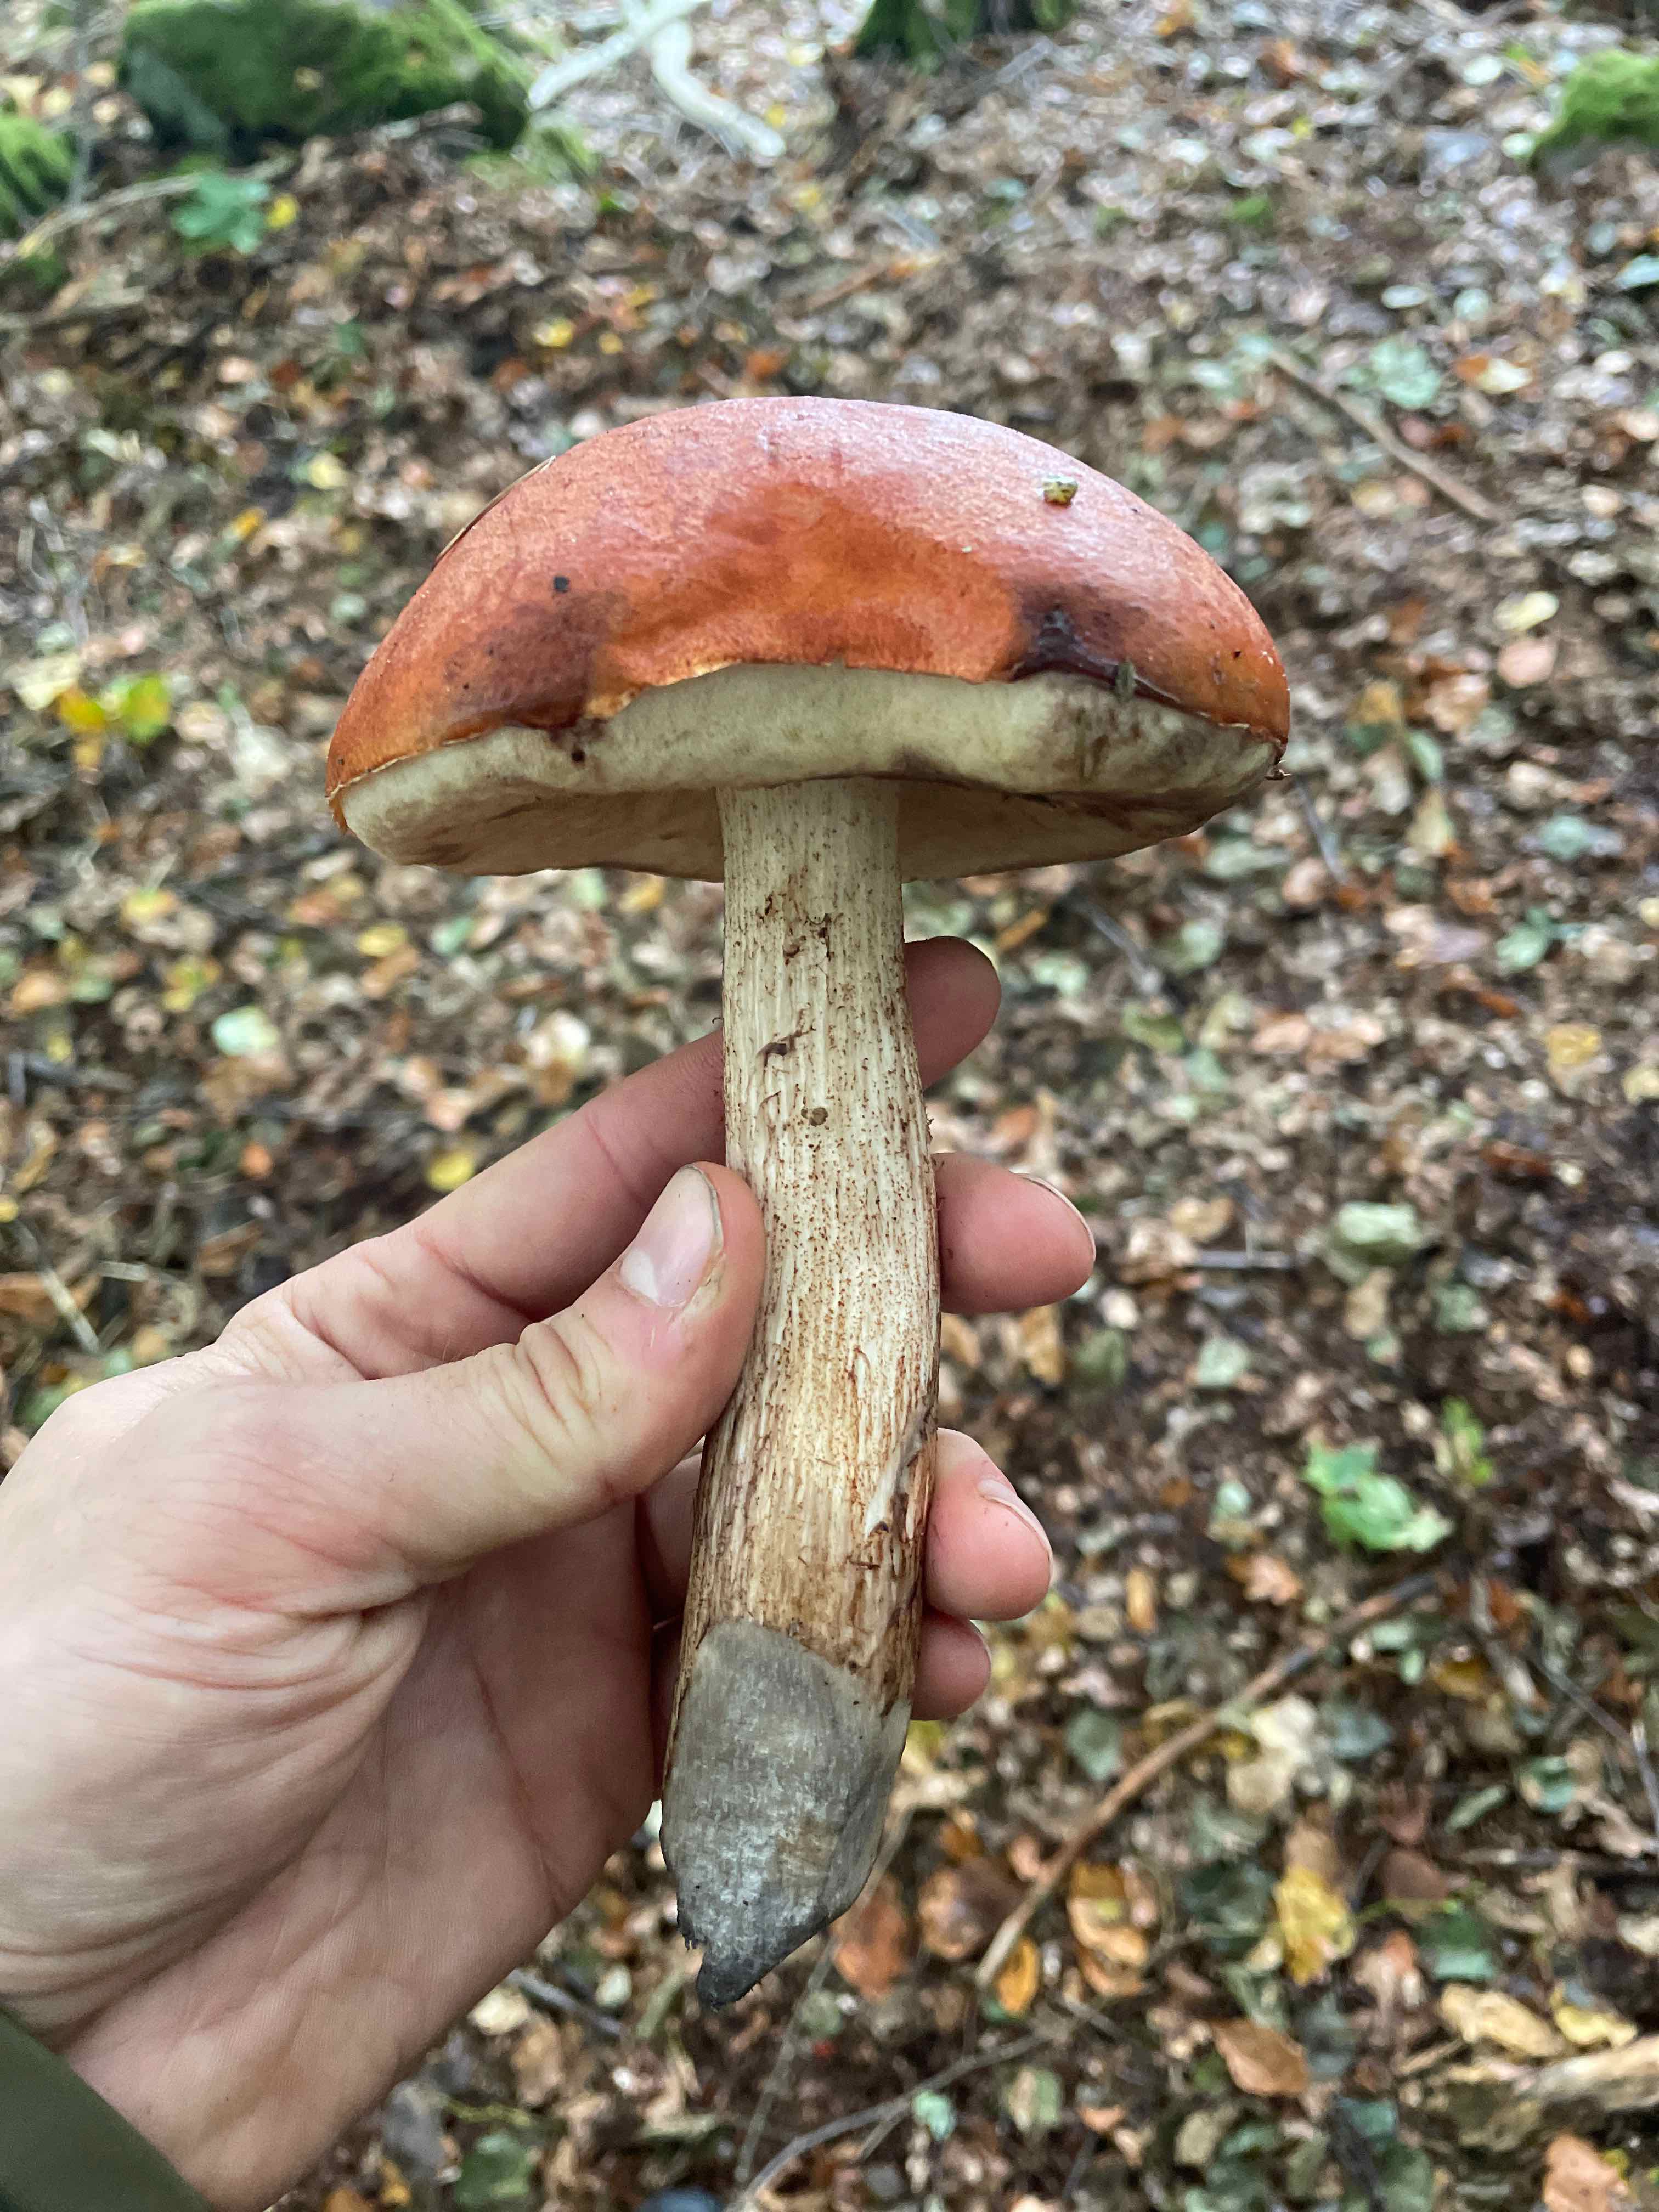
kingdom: Fungi
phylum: Basidiomycota
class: Agaricomycetes
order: Boletales
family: Boletaceae
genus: Leccinum
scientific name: Leccinum
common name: skælrørhat
